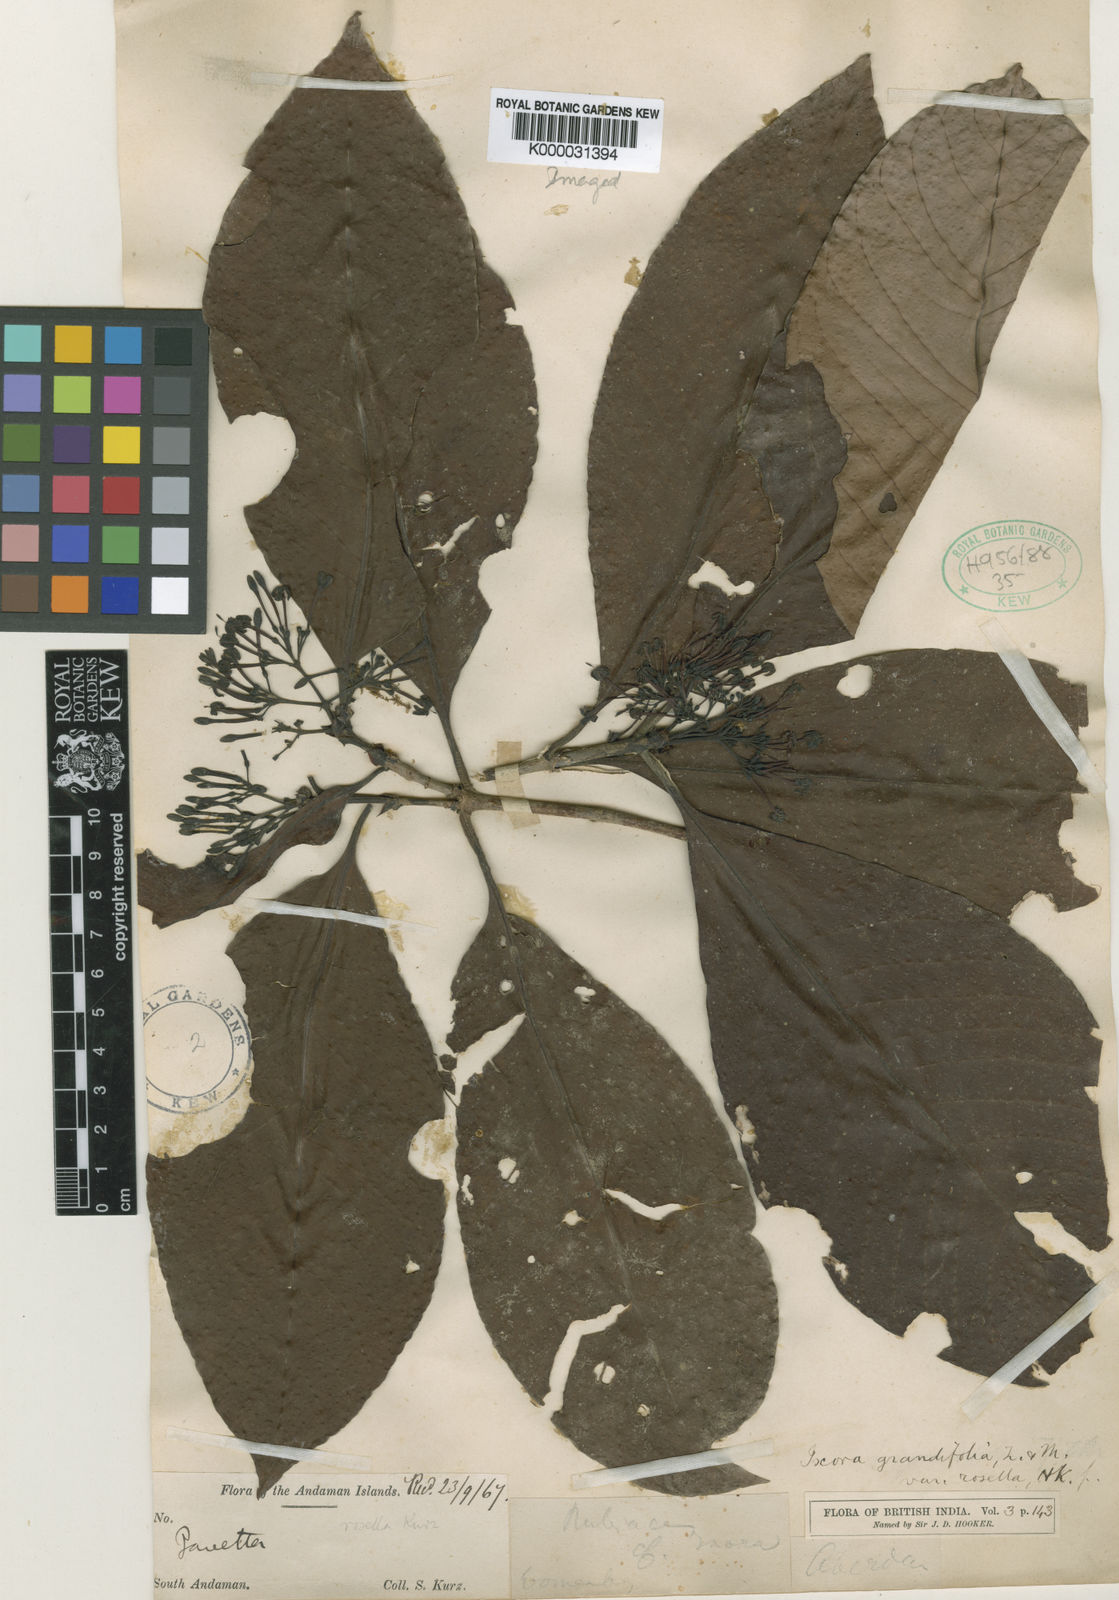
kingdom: Plantae
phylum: Tracheophyta
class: Magnoliopsida
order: Gentianales
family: Rubiaceae
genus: Ixora
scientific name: Ixora grandifolia
